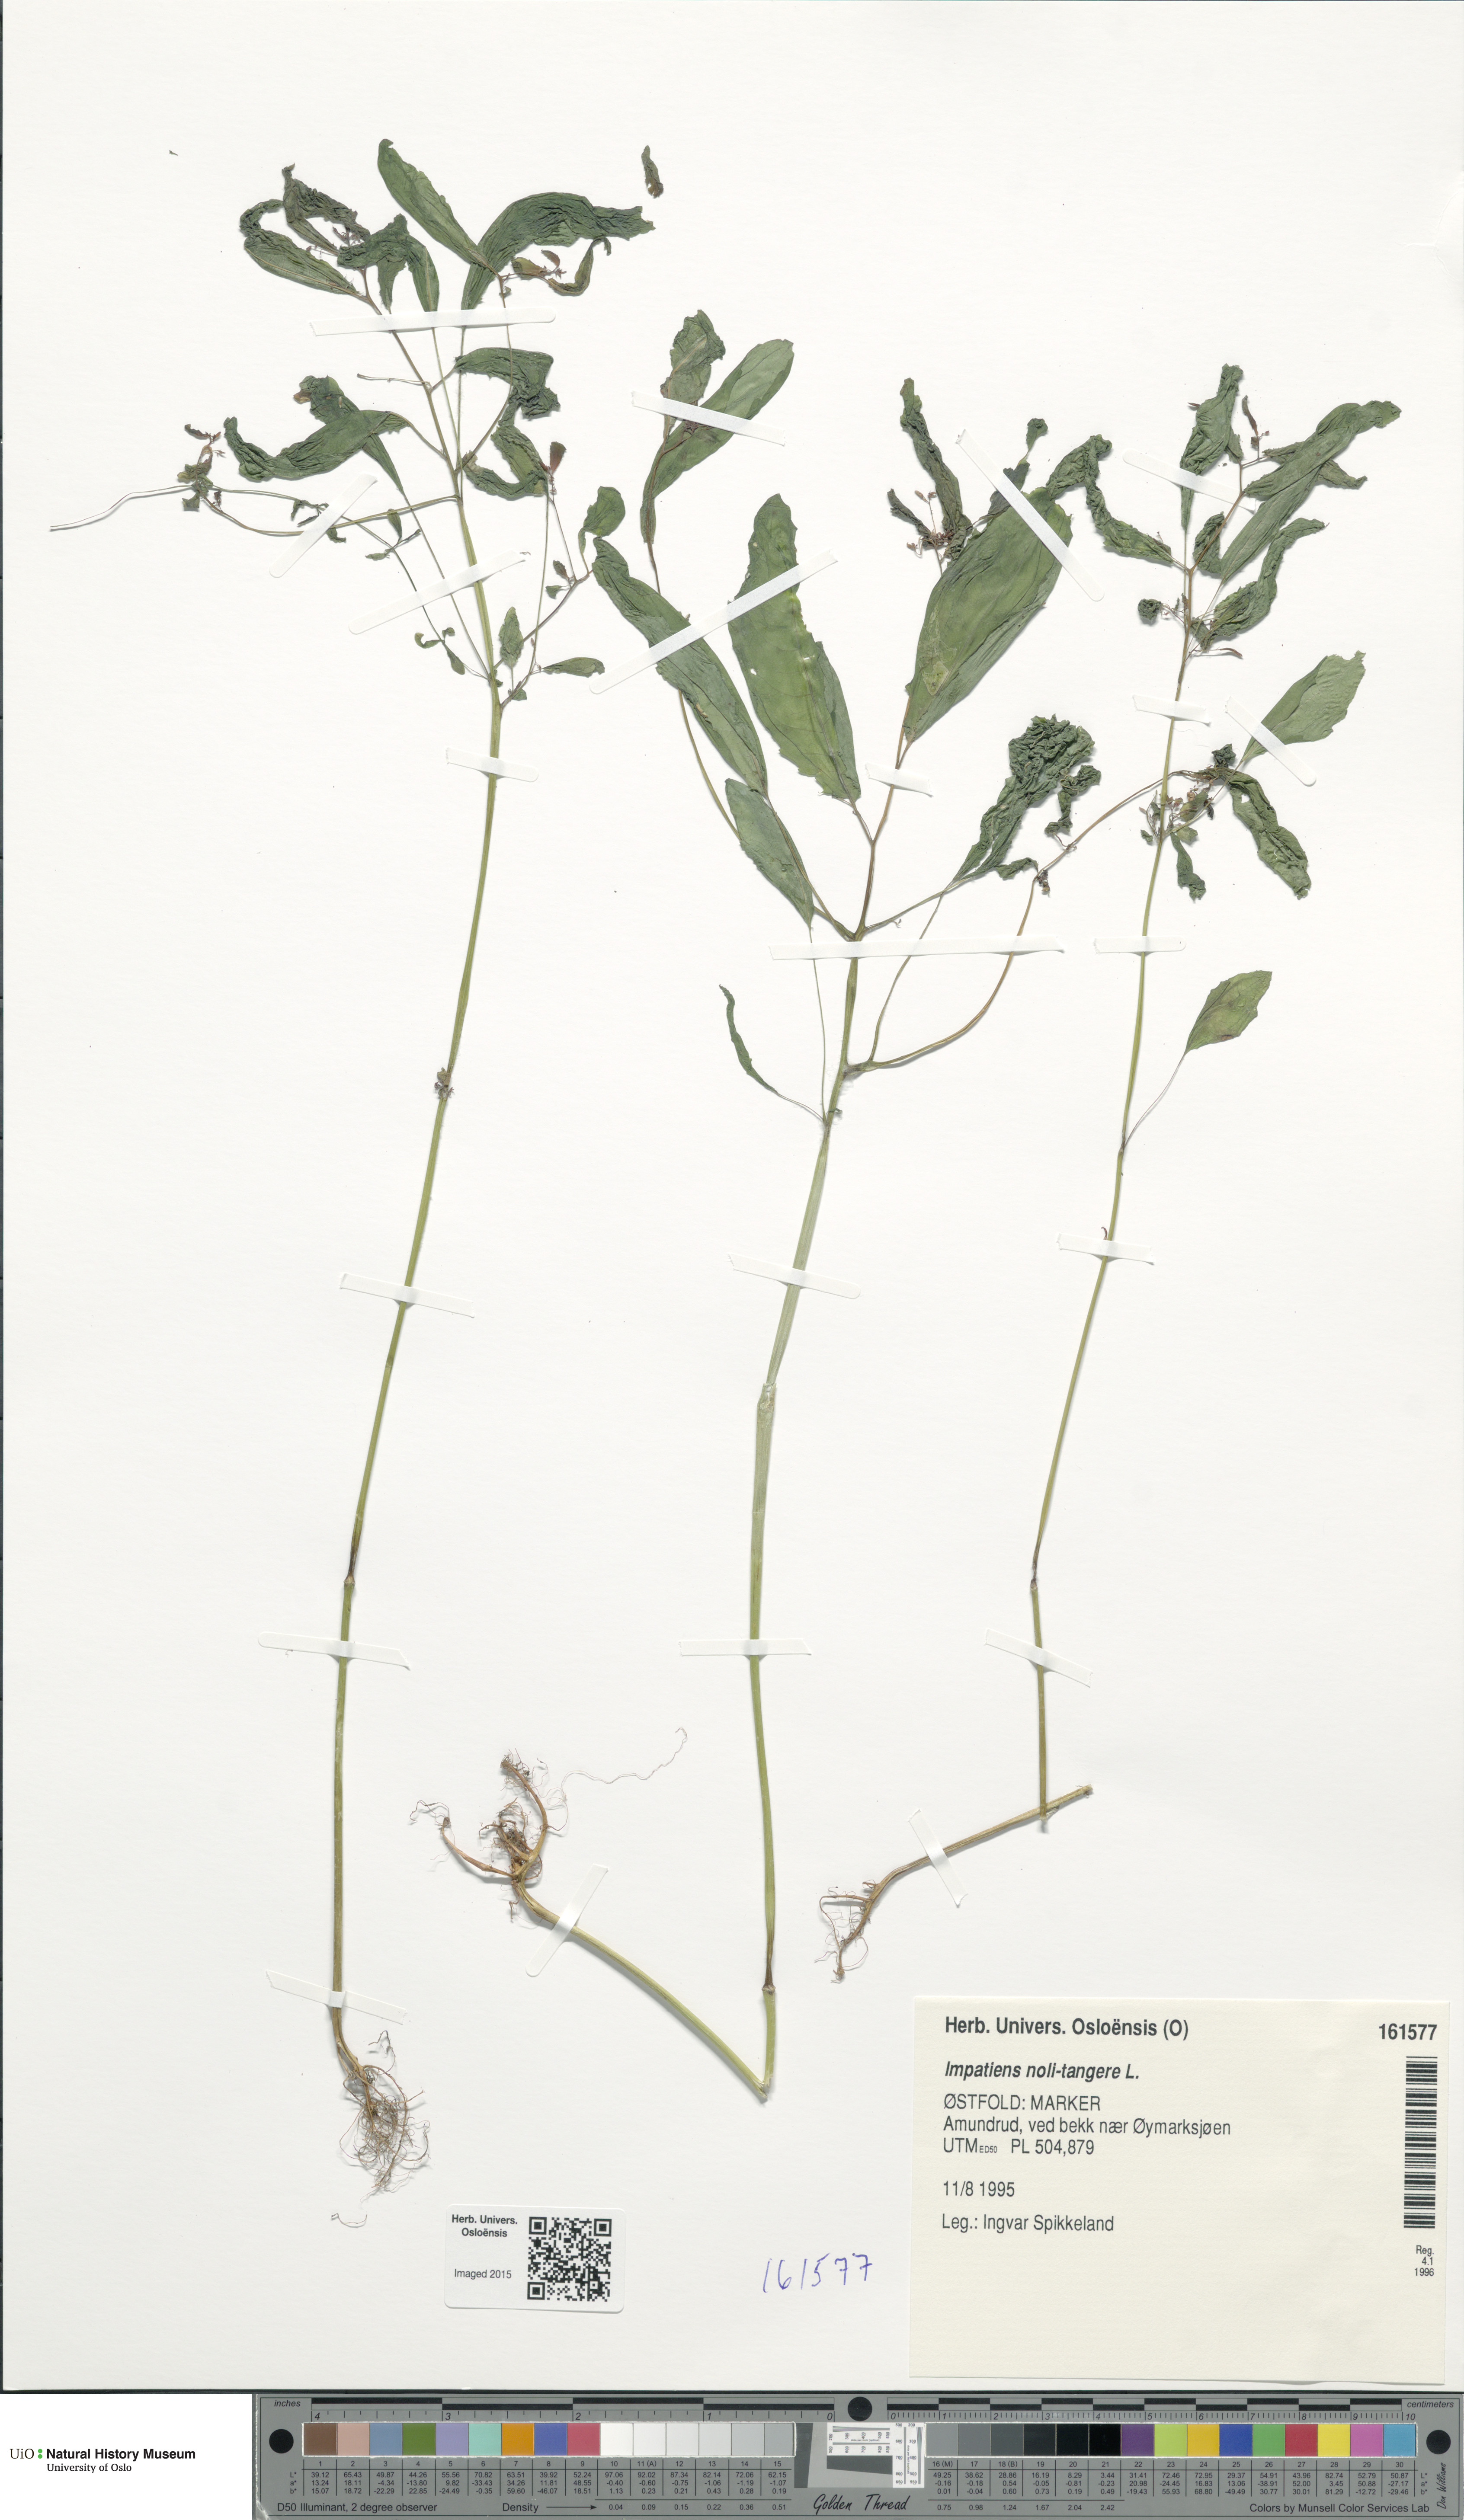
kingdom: Plantae
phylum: Tracheophyta
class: Magnoliopsida
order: Ericales
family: Balsaminaceae
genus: Impatiens
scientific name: Impatiens noli-tangere
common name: Touch-me-not balsam
